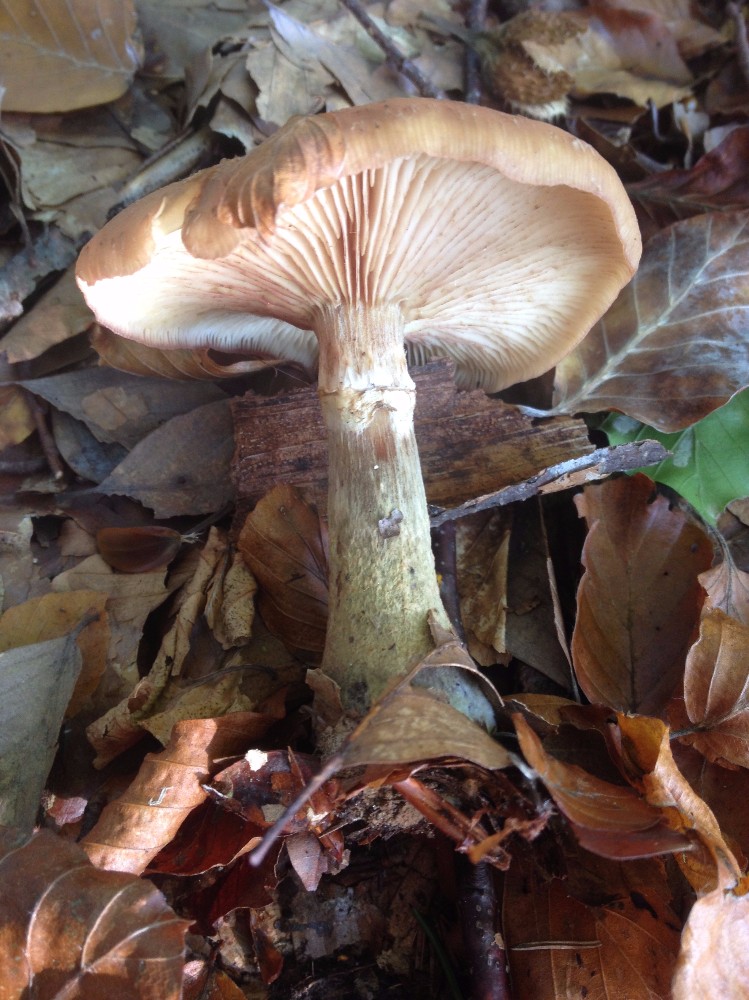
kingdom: Fungi
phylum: Basidiomycota
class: Agaricomycetes
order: Agaricales
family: Physalacriaceae
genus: Armillaria
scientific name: Armillaria lutea
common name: køllestokket honningsvamp
